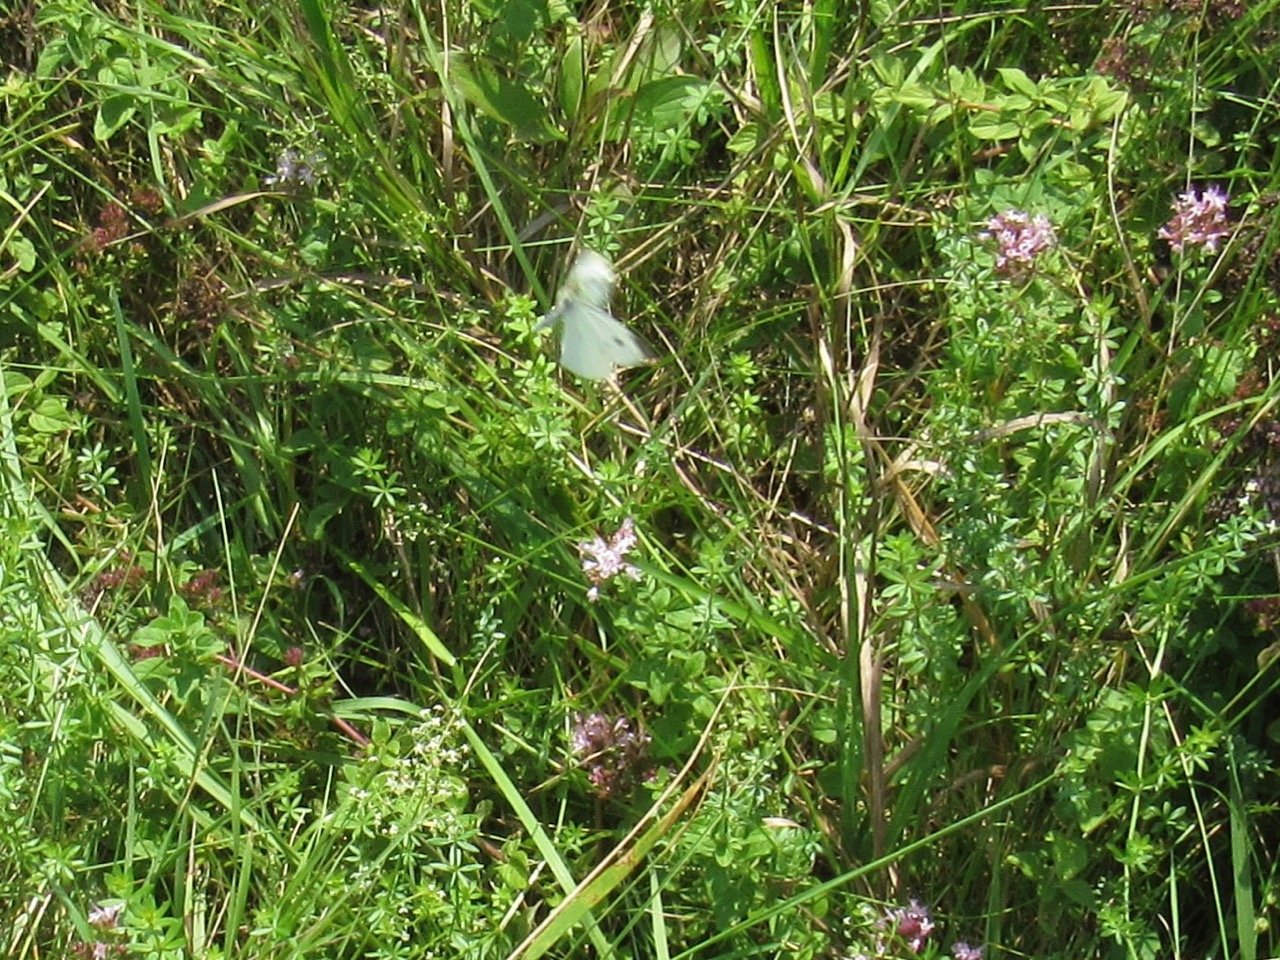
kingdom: Animalia
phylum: Arthropoda
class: Insecta
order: Lepidoptera
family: Pieridae
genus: Pieris
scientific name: Pieris rapae
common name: Cabbage White
